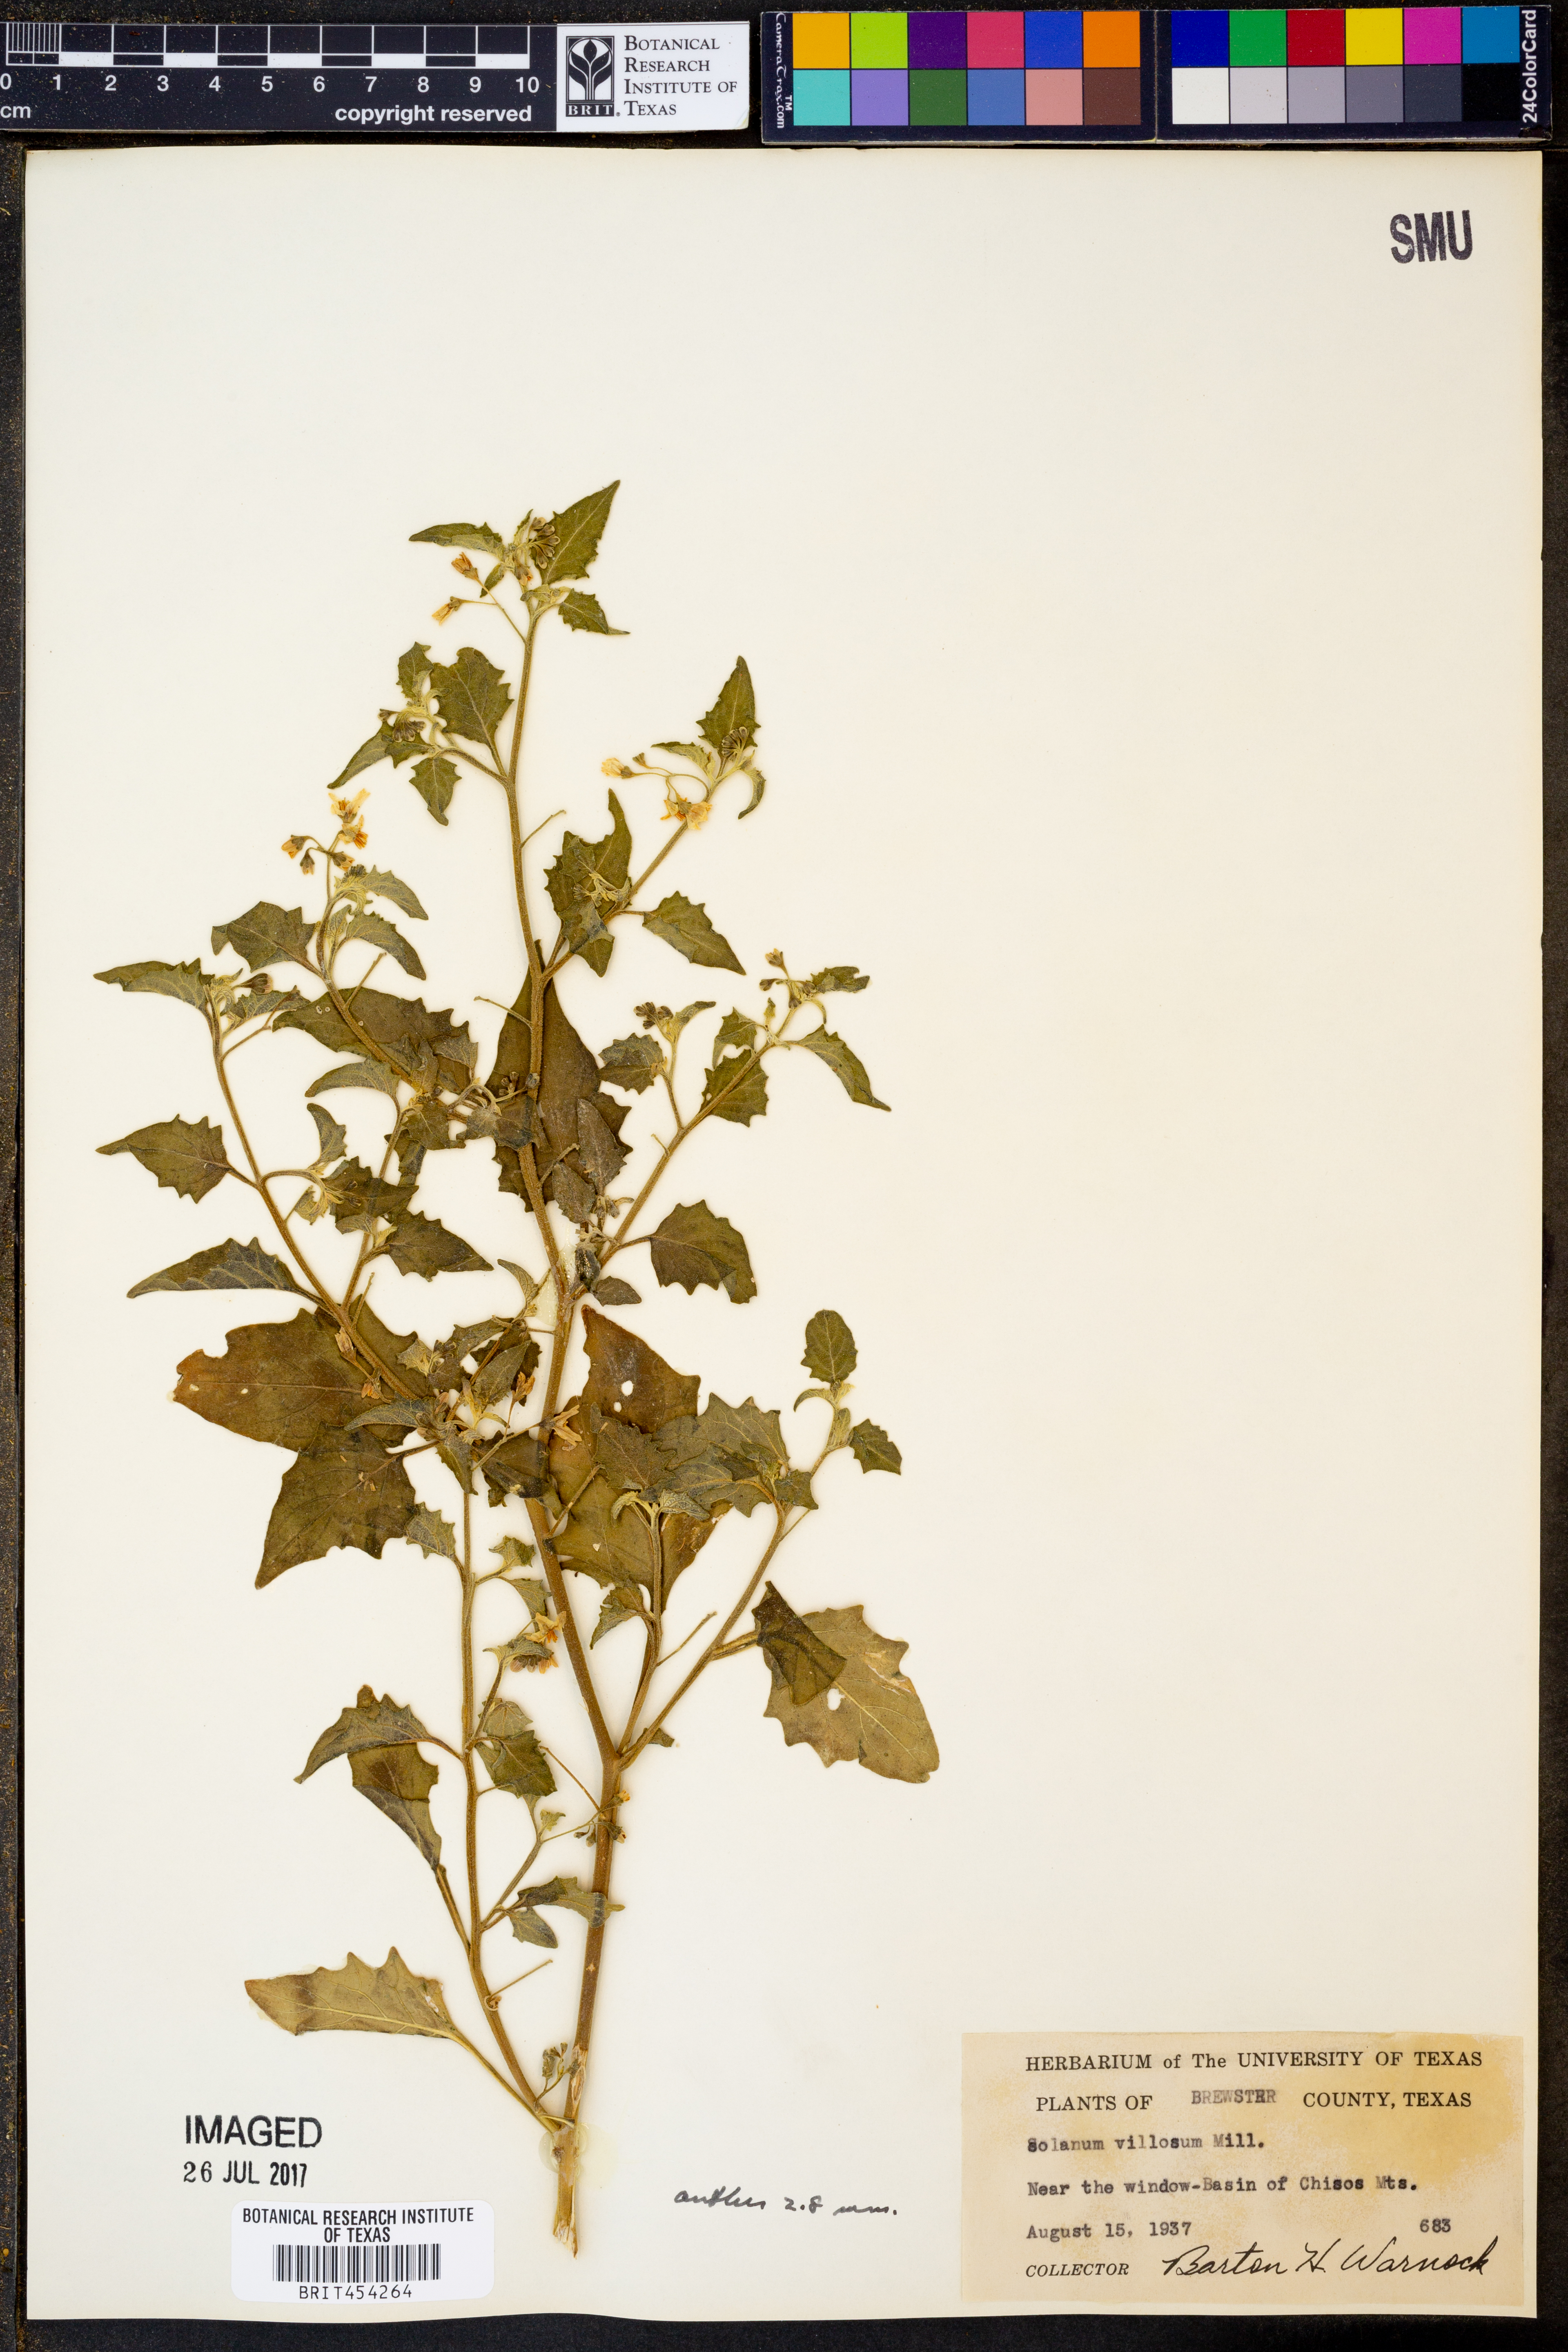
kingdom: Plantae
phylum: Tracheophyta
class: Magnoliopsida
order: Solanales
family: Solanaceae
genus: Solanum
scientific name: Solanum villosum
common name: Red nightshade
